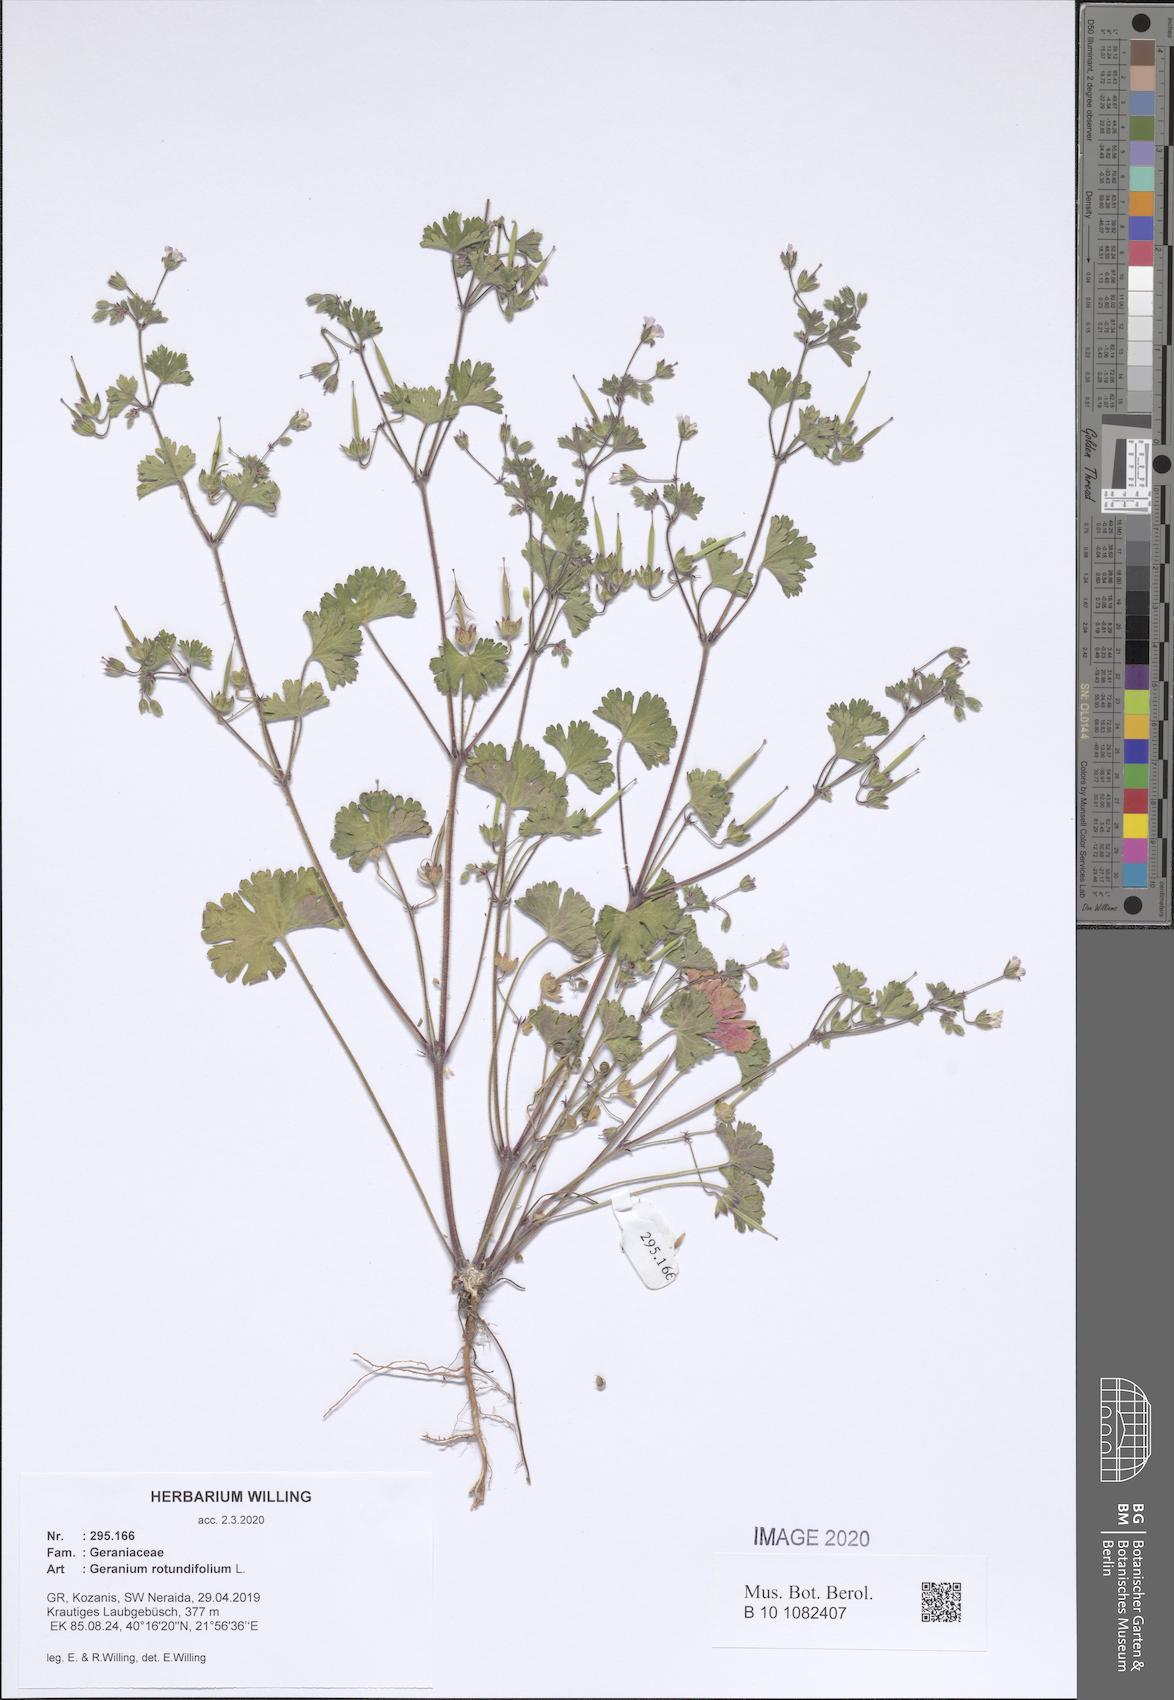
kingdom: Plantae
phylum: Tracheophyta
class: Magnoliopsida
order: Geraniales
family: Geraniaceae
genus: Geranium
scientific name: Geranium rotundifolium
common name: Round-leaved crane's-bill
